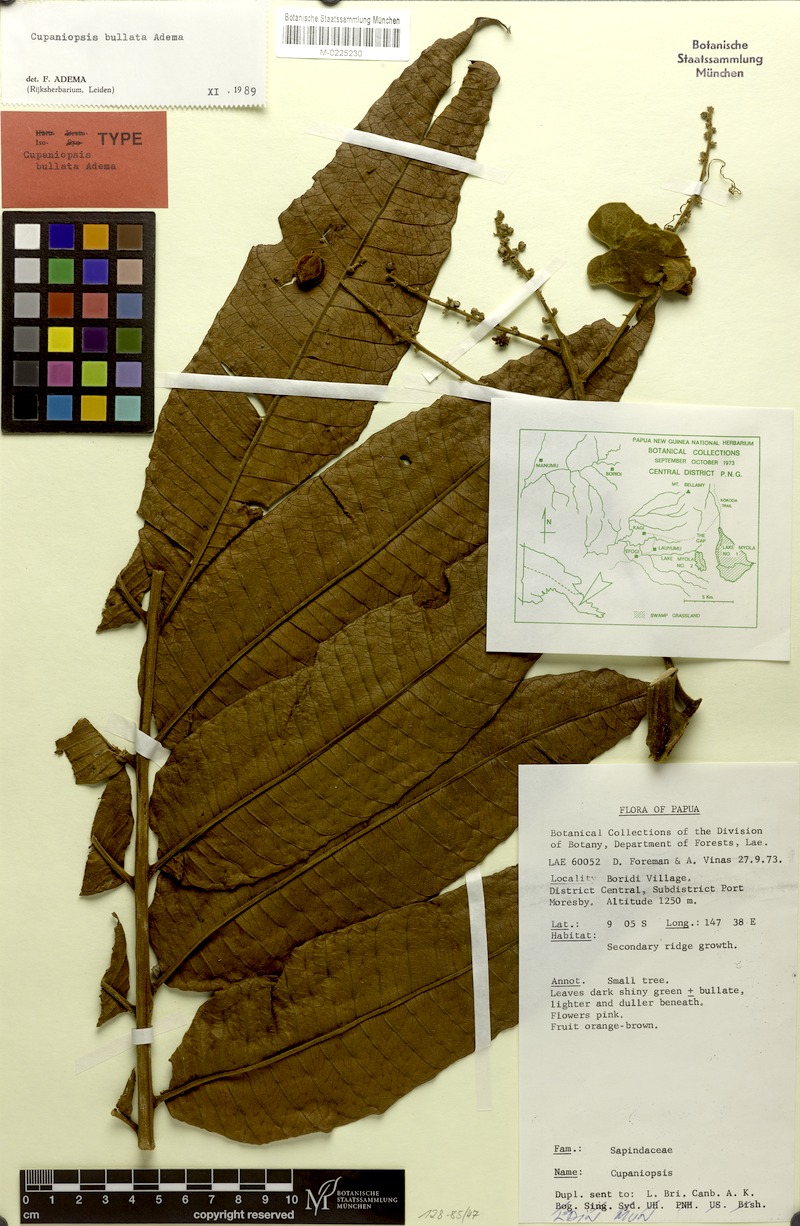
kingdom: Plantae
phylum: Tracheophyta
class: Magnoliopsida
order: Sapindales
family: Sapindaceae
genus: Cupaniopsis
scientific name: Cupaniopsis bullata
